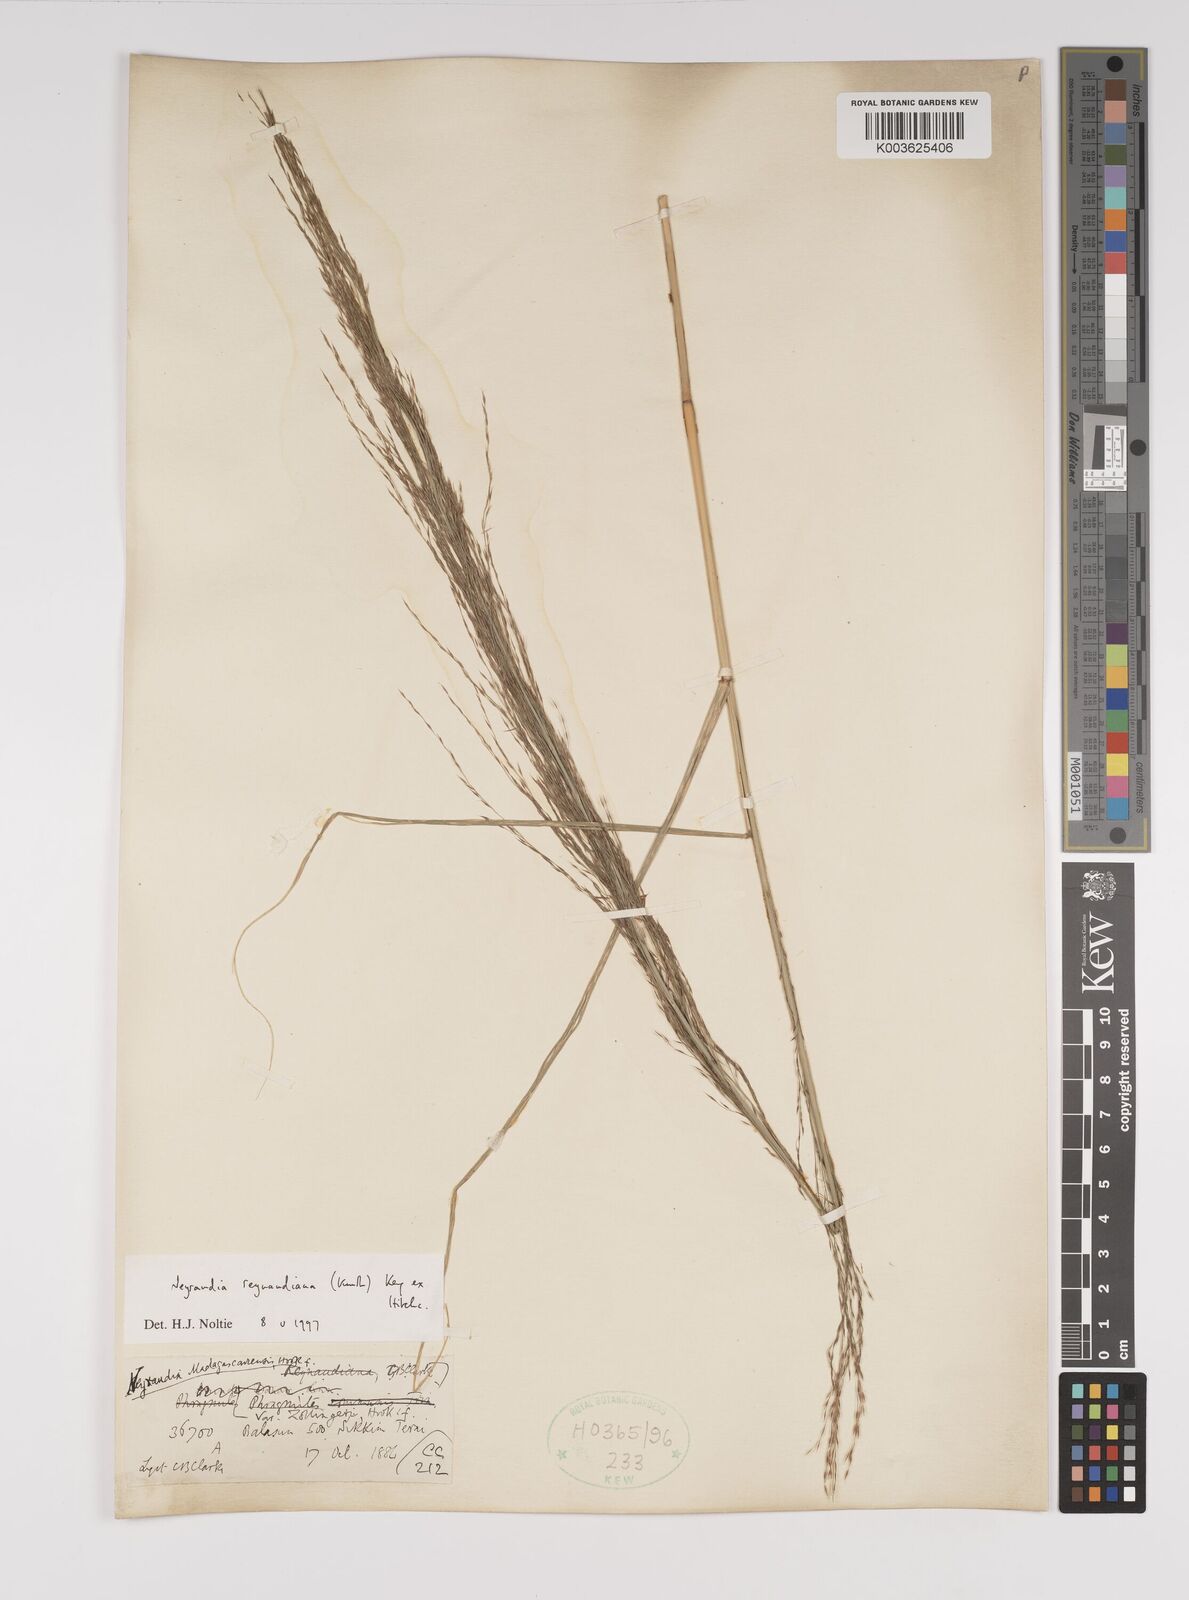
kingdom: Plantae
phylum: Tracheophyta
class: Liliopsida
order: Poales
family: Poaceae
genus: Neyraudia
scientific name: Neyraudia reynaudiana
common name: Silkreed
